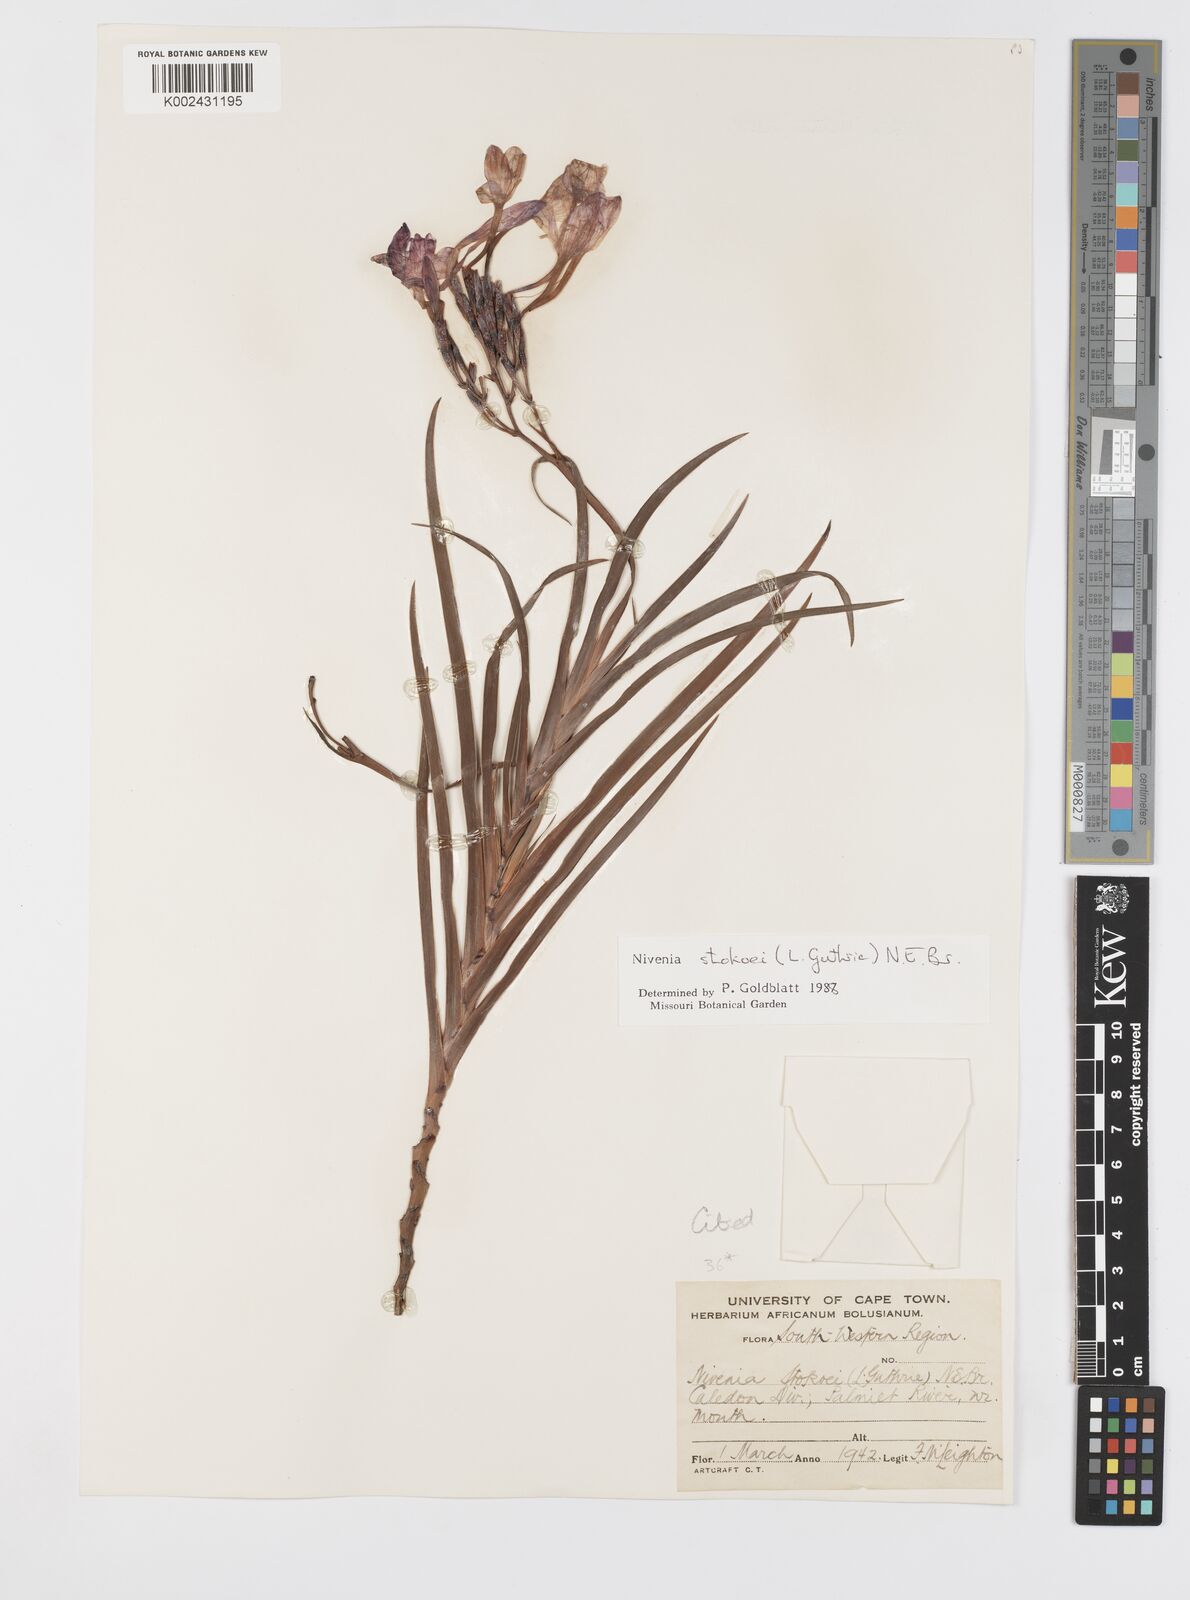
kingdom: Plantae
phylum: Tracheophyta
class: Liliopsida
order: Asparagales
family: Iridaceae
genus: Nivenia
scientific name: Nivenia stokoei
